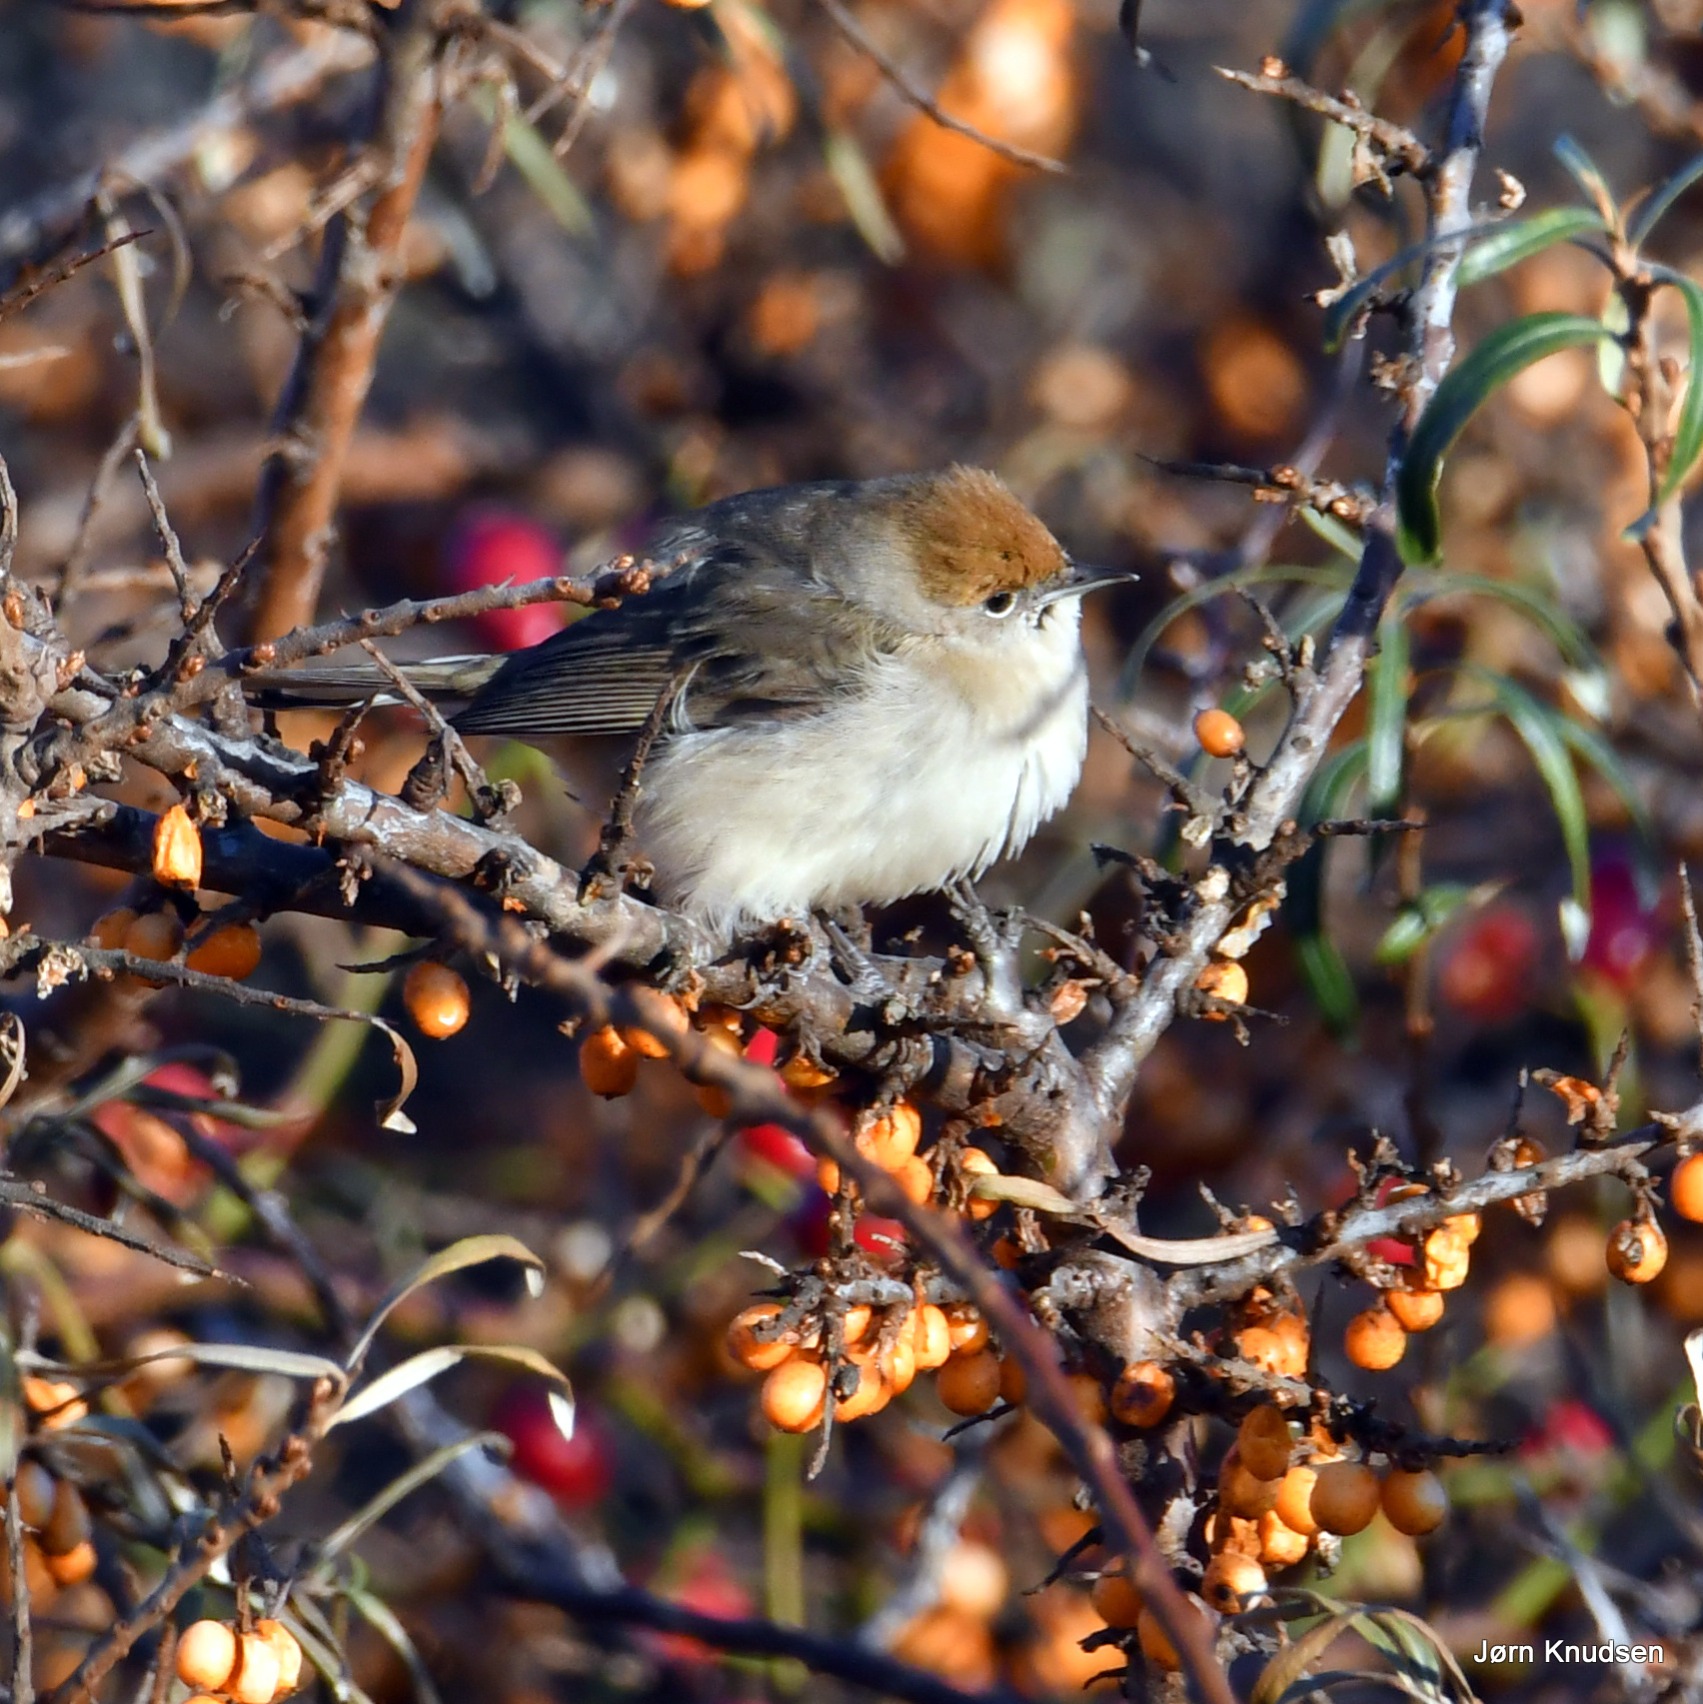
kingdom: Animalia
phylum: Chordata
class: Aves
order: Passeriformes
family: Sylviidae
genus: Sylvia
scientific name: Sylvia atricapilla
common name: Munk
